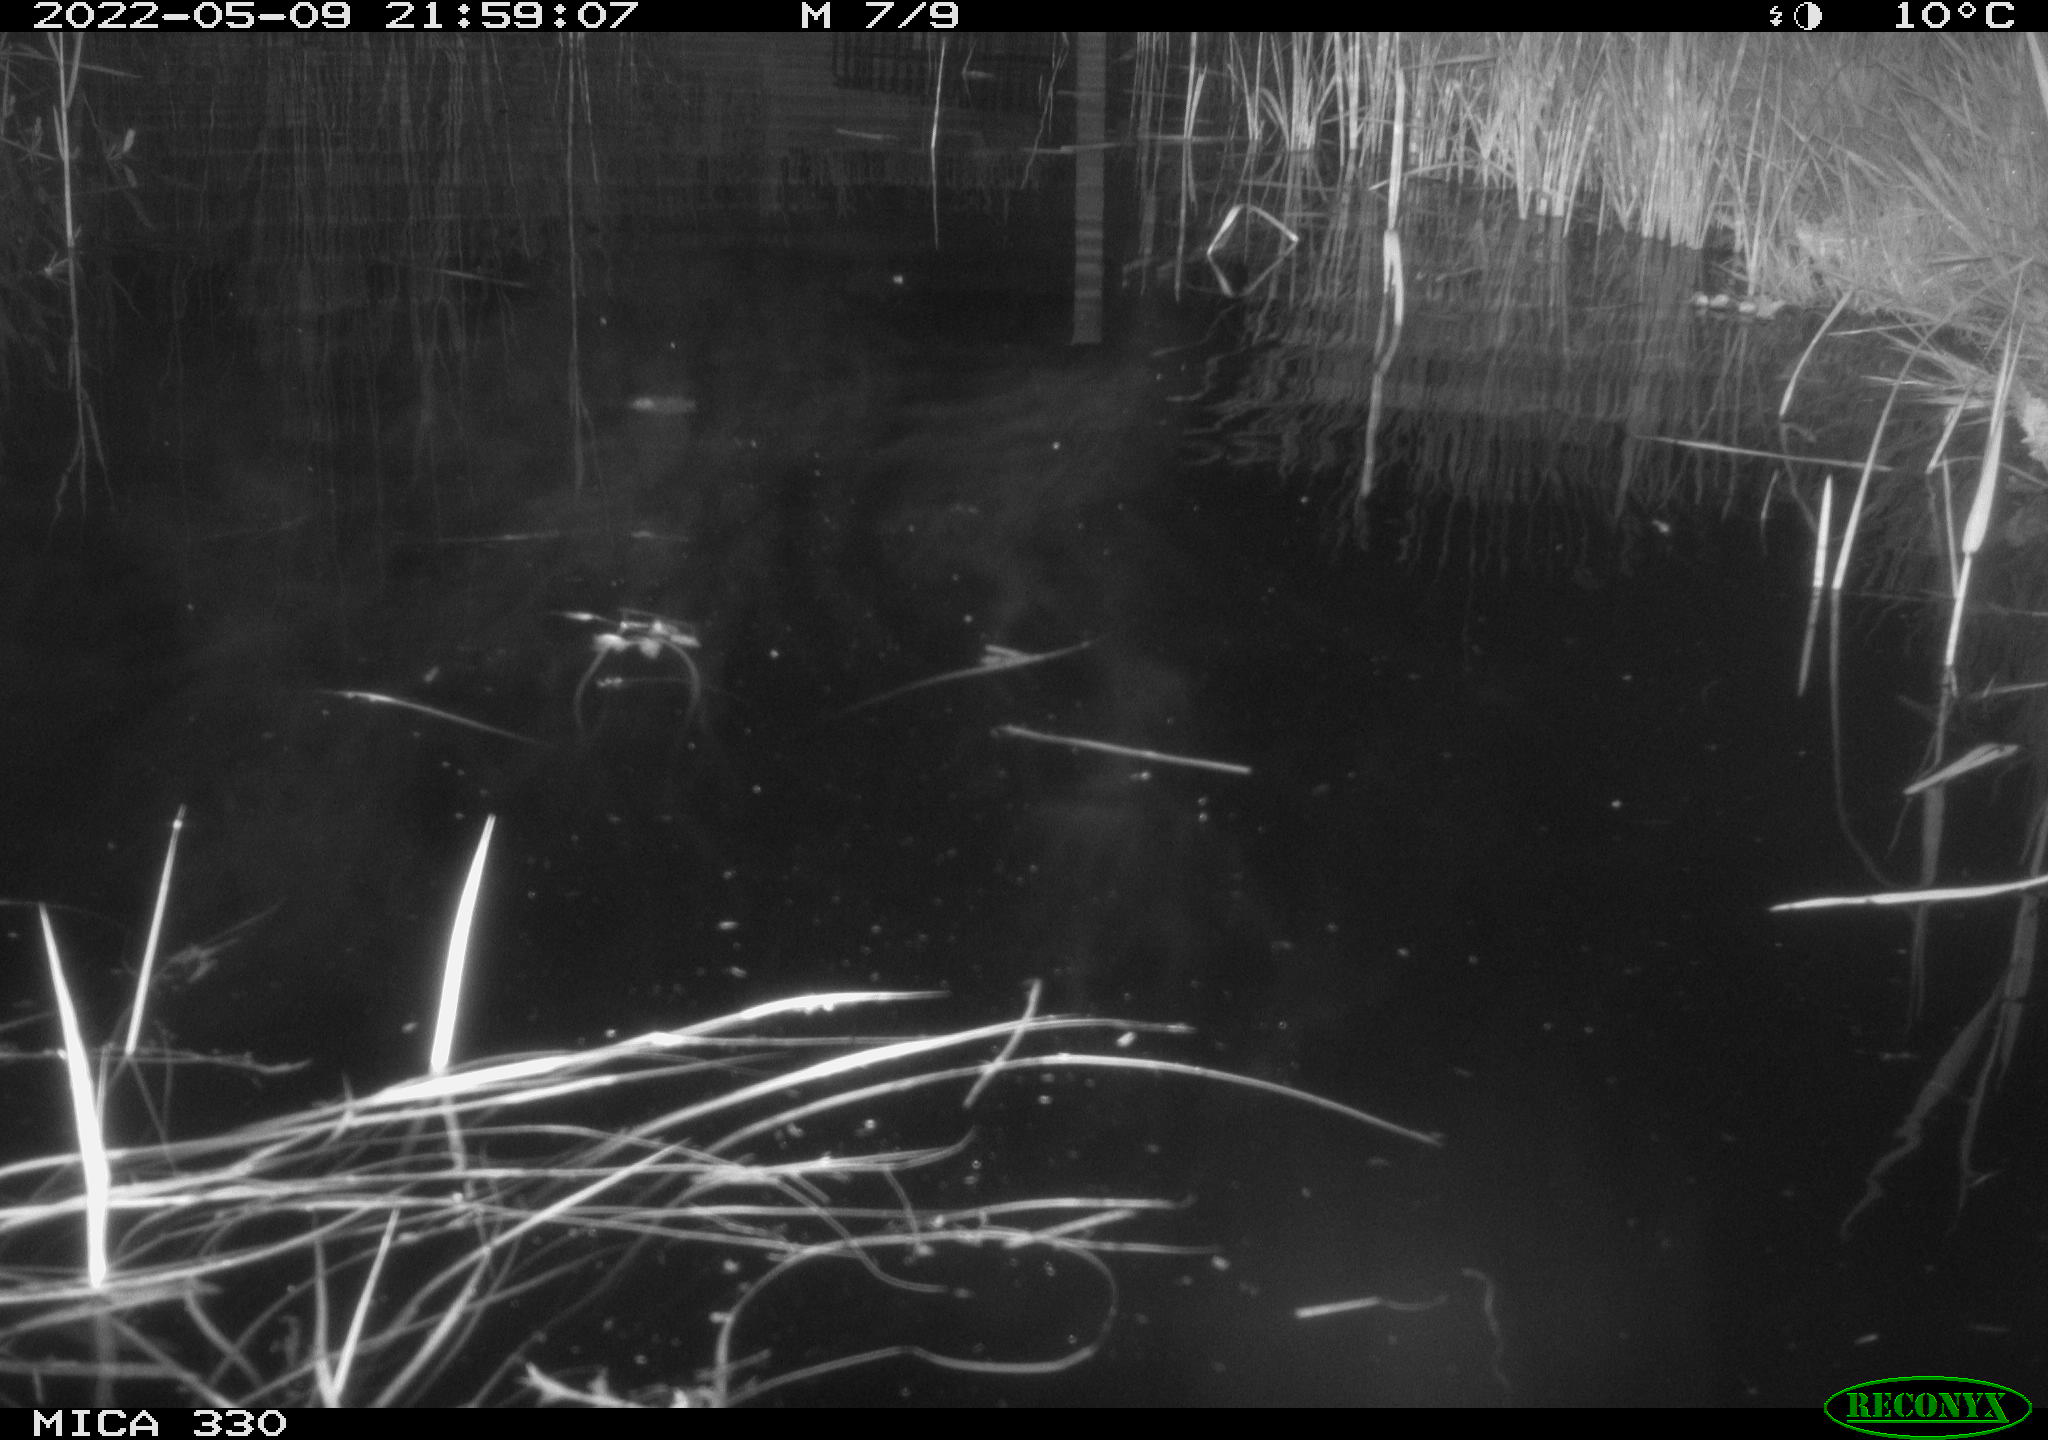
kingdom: Animalia
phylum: Chordata
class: Aves
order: Anseriformes
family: Anatidae
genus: Anas
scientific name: Anas platyrhynchos
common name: Mallard
